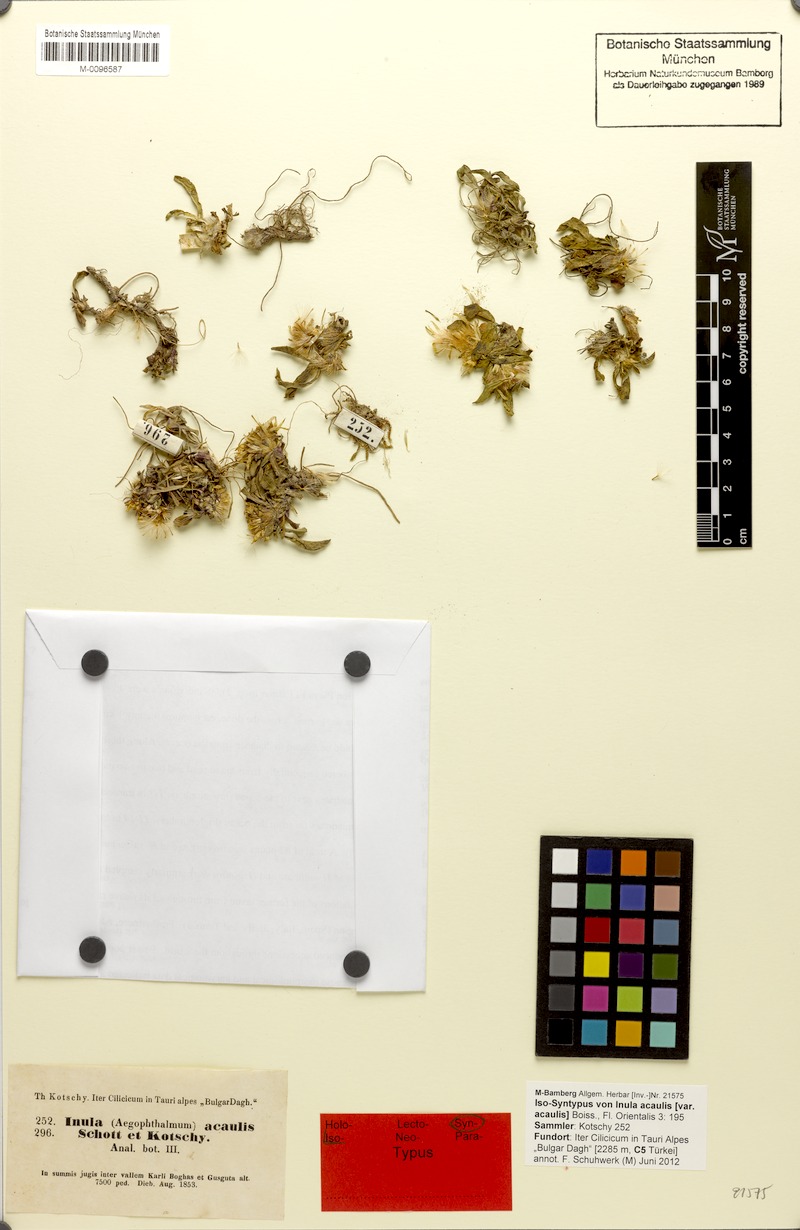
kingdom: Plantae
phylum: Tracheophyta
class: Magnoliopsida
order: Asterales
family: Asteraceae
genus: Inula
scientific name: Inula acaulis
